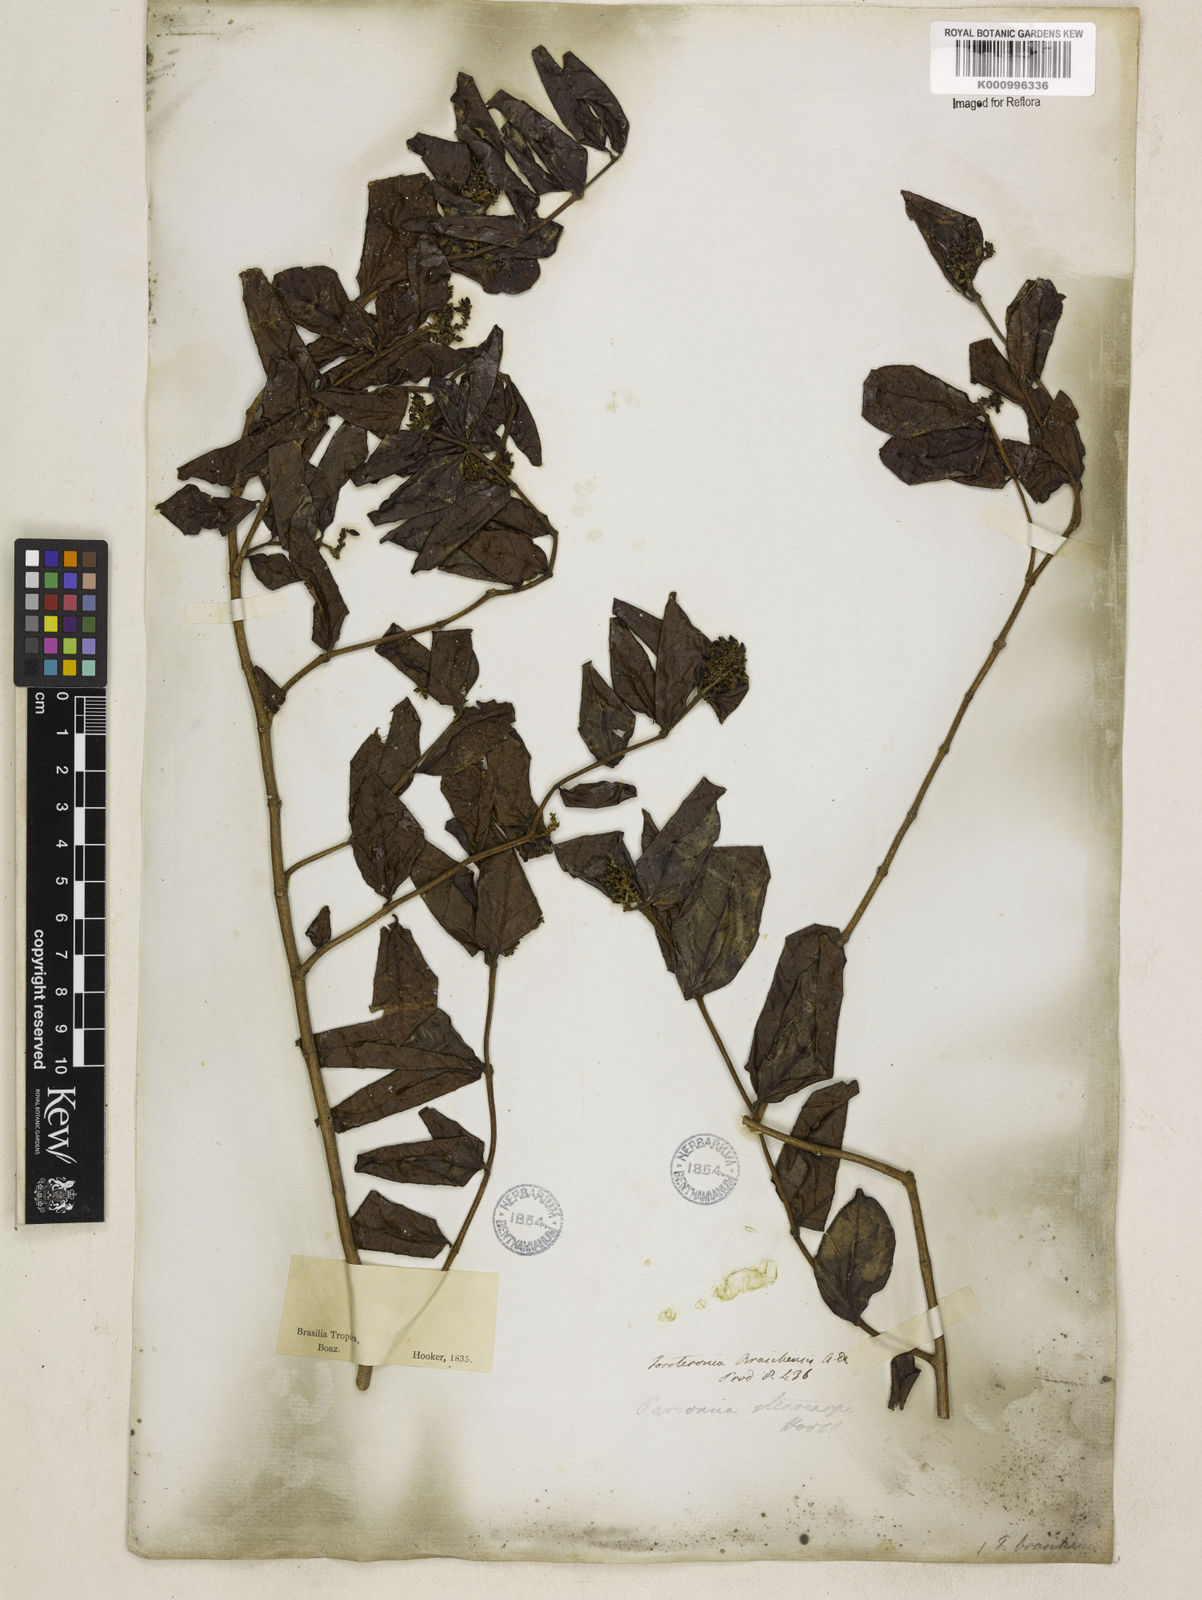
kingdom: Plantae
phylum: Tracheophyta
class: Magnoliopsida
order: Gentianales
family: Apocynaceae
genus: Forsteronia
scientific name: Forsteronia leptocarpa
